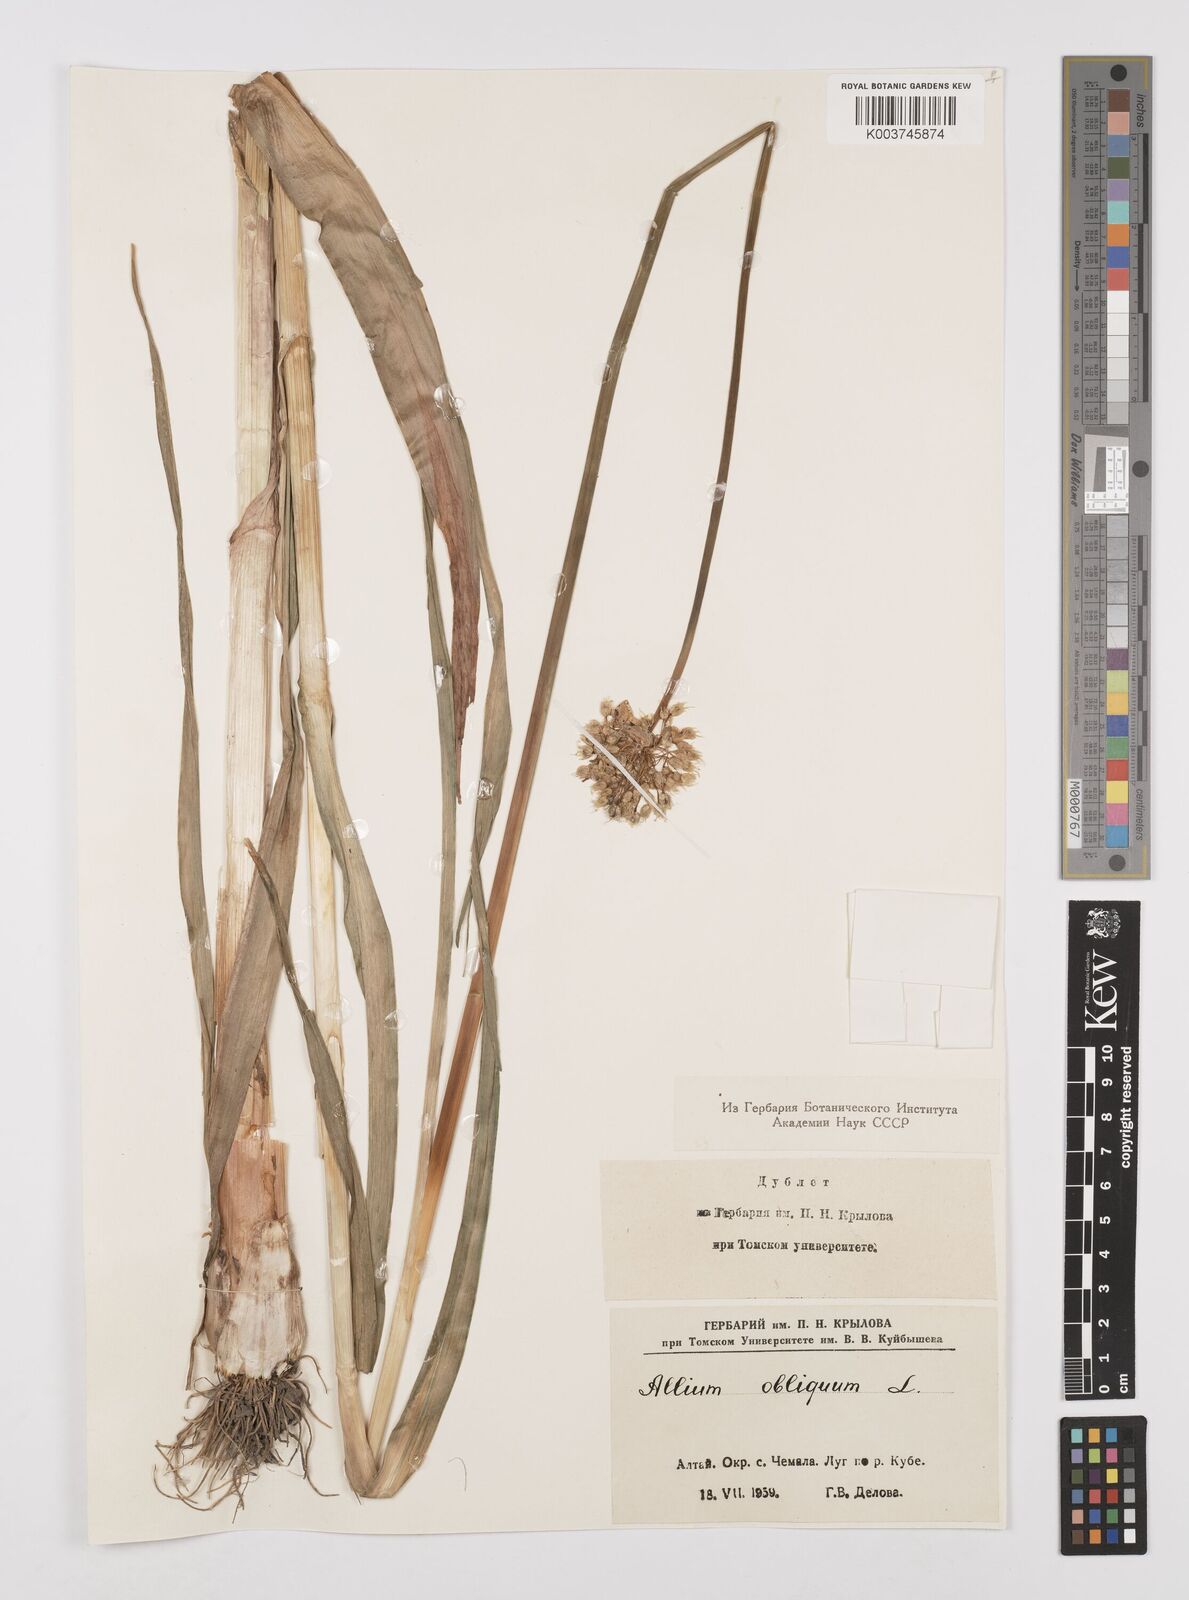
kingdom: Plantae
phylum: Tracheophyta
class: Liliopsida
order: Asparagales
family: Amaryllidaceae
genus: Allium
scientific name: Allium obliquum
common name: Oblique onion
